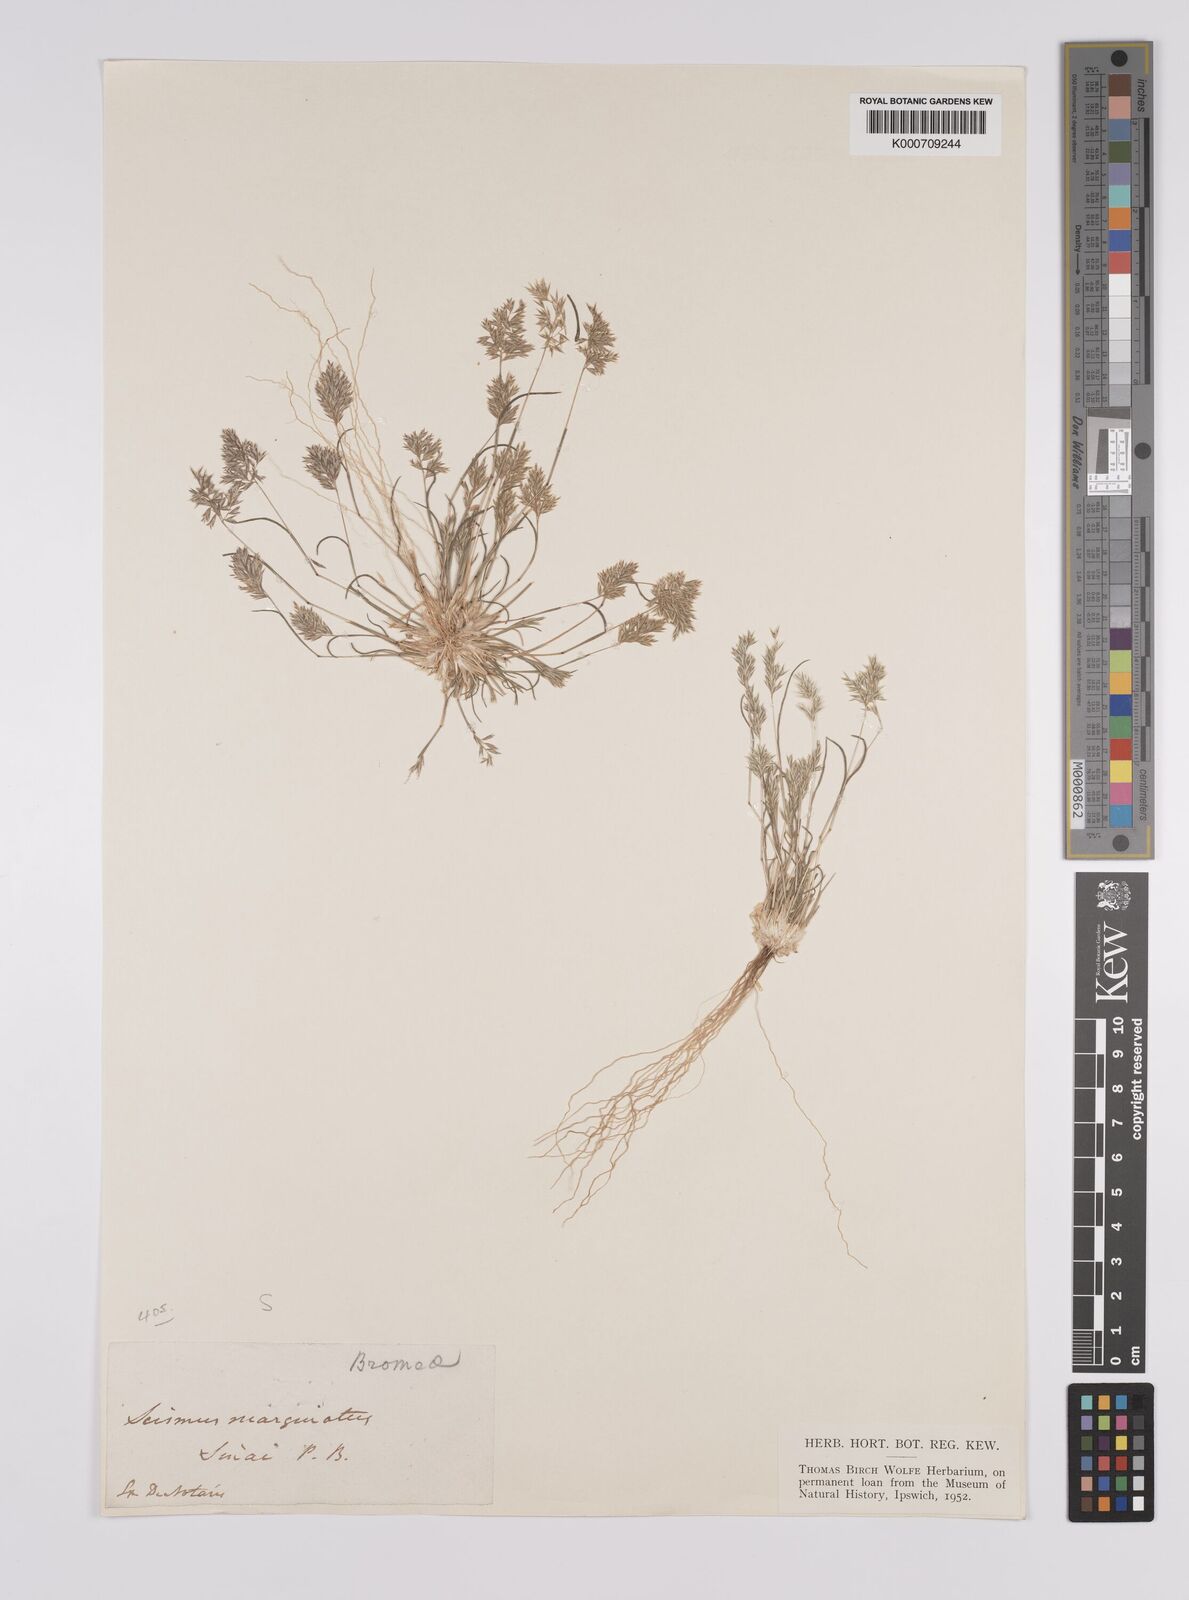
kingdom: Plantae
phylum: Tracheophyta
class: Liliopsida
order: Poales
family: Poaceae
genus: Schismus
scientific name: Schismus barbatus
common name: Kelch-grass
